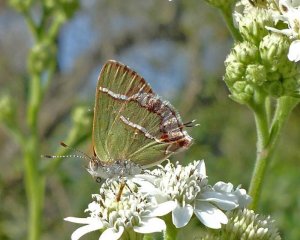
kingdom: Animalia
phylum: Arthropoda
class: Insecta
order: Lepidoptera
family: Lycaenidae
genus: Chlorostrymon
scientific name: Chlorostrymon simaethis
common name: Silver-banded Hairstreak
